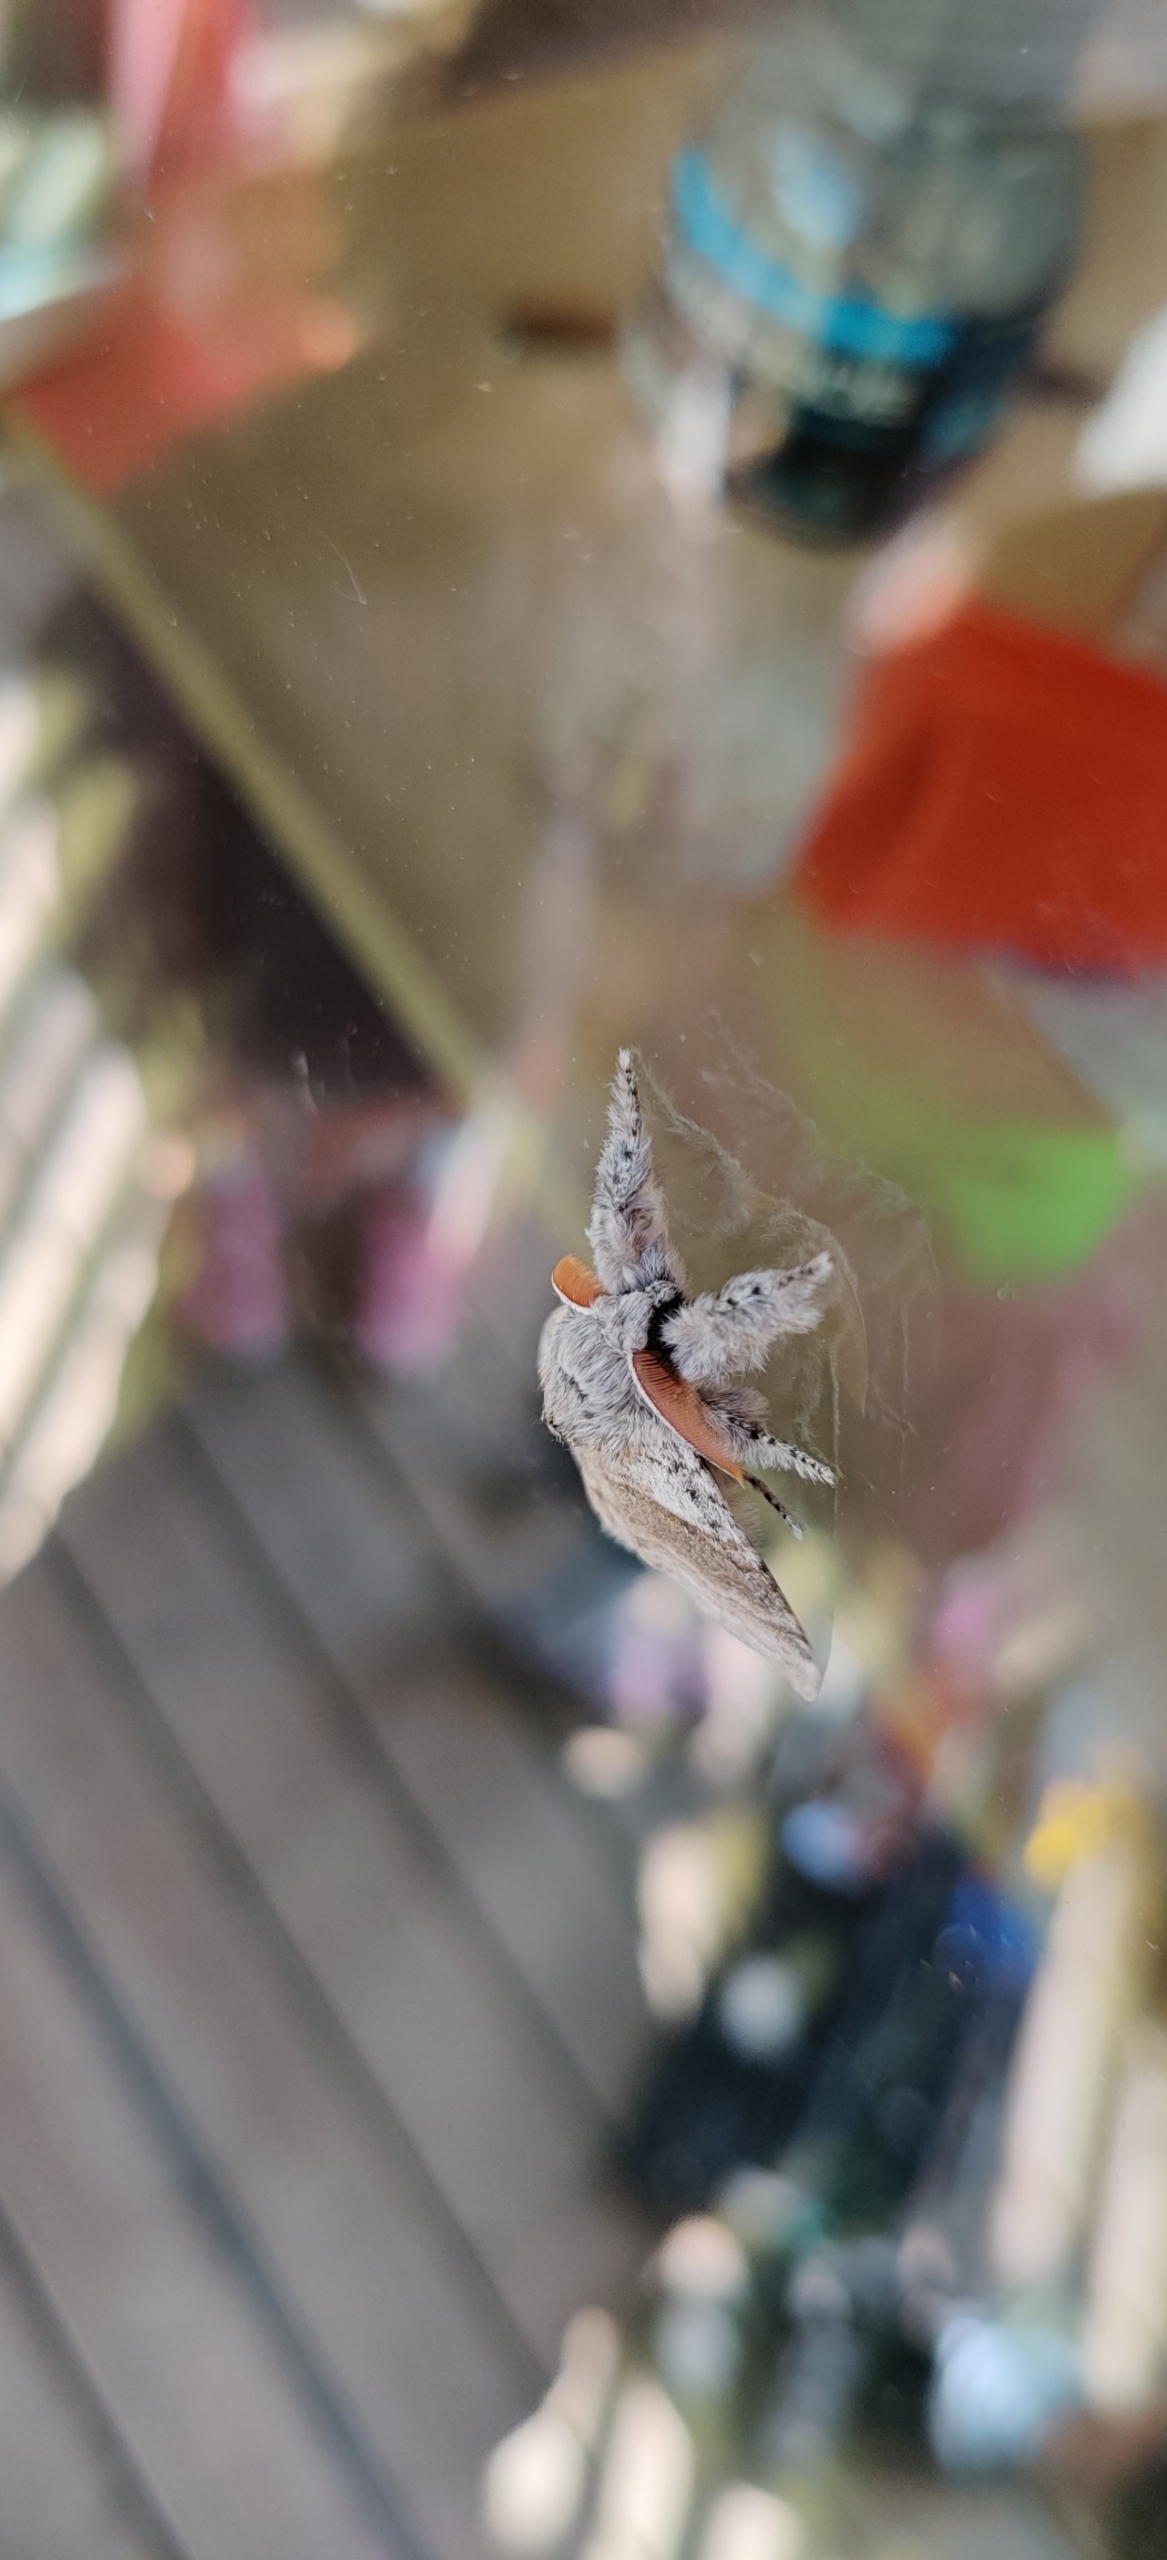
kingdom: Animalia
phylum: Arthropoda
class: Insecta
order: Lepidoptera
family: Erebidae
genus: Calliteara
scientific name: Calliteara pudibunda
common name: Bøgenonne
